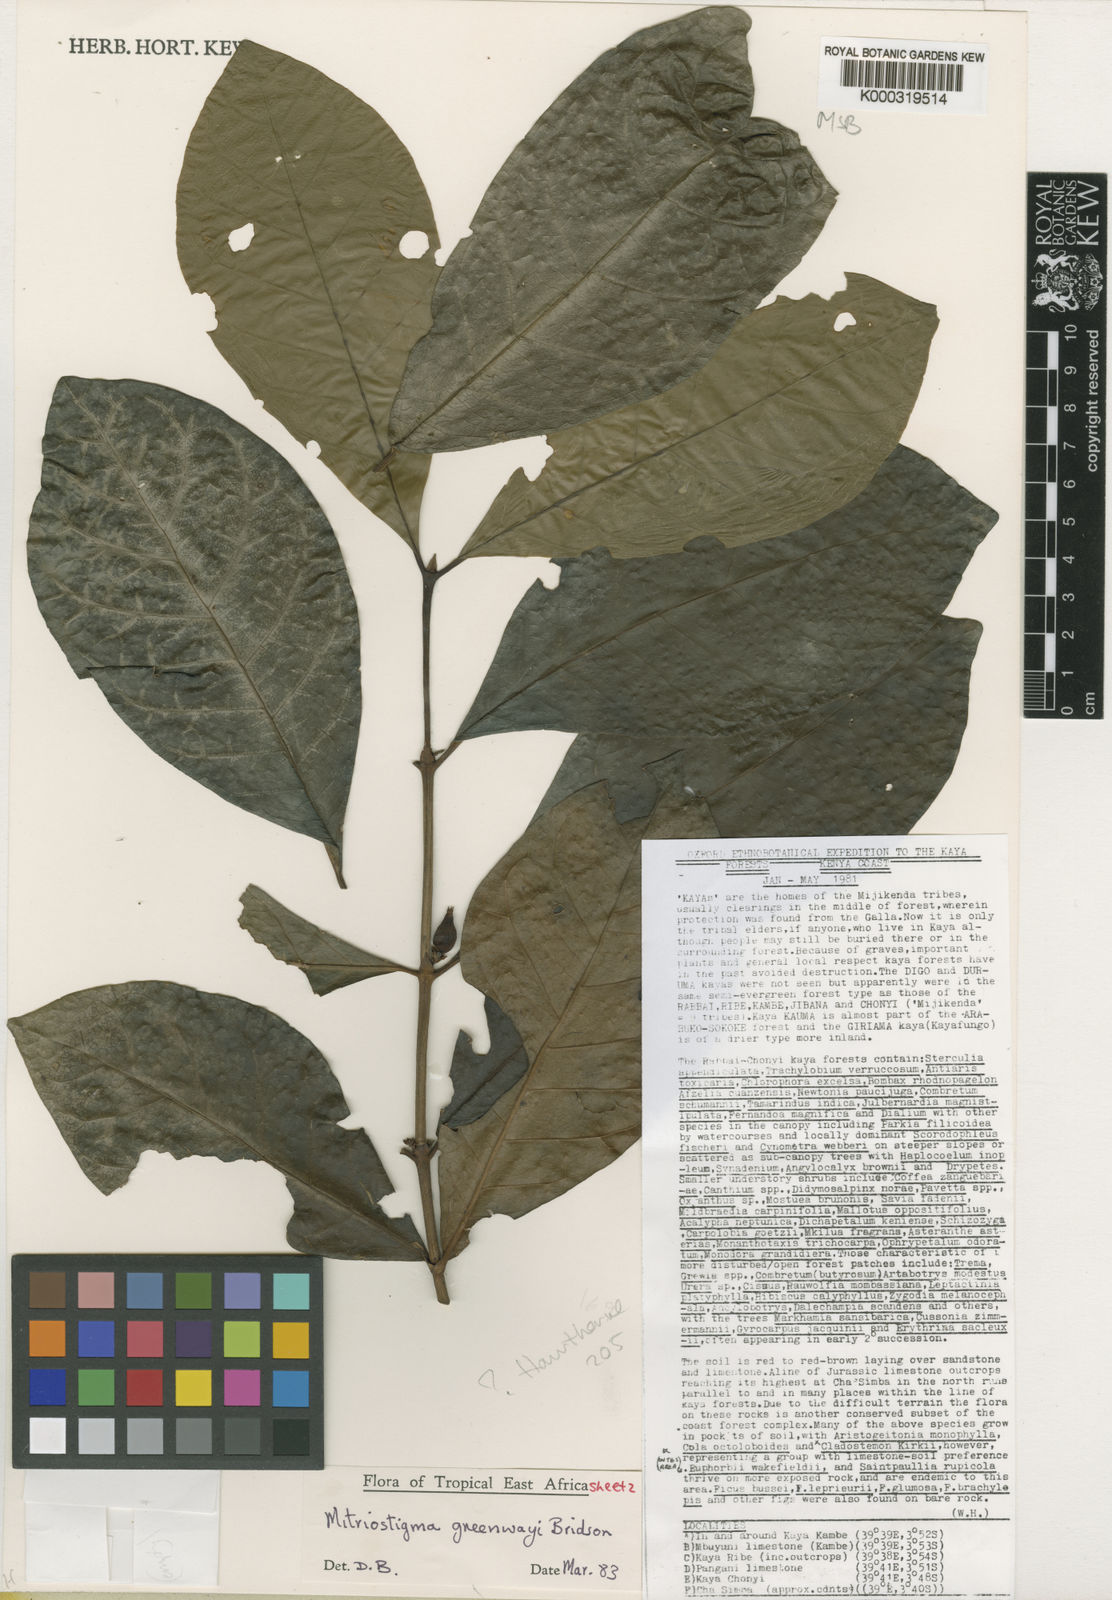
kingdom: Plantae
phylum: Tracheophyta
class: Magnoliopsida
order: Gentianales
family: Rubiaceae
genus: Mitriostigma
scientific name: Mitriostigma greenwayi
